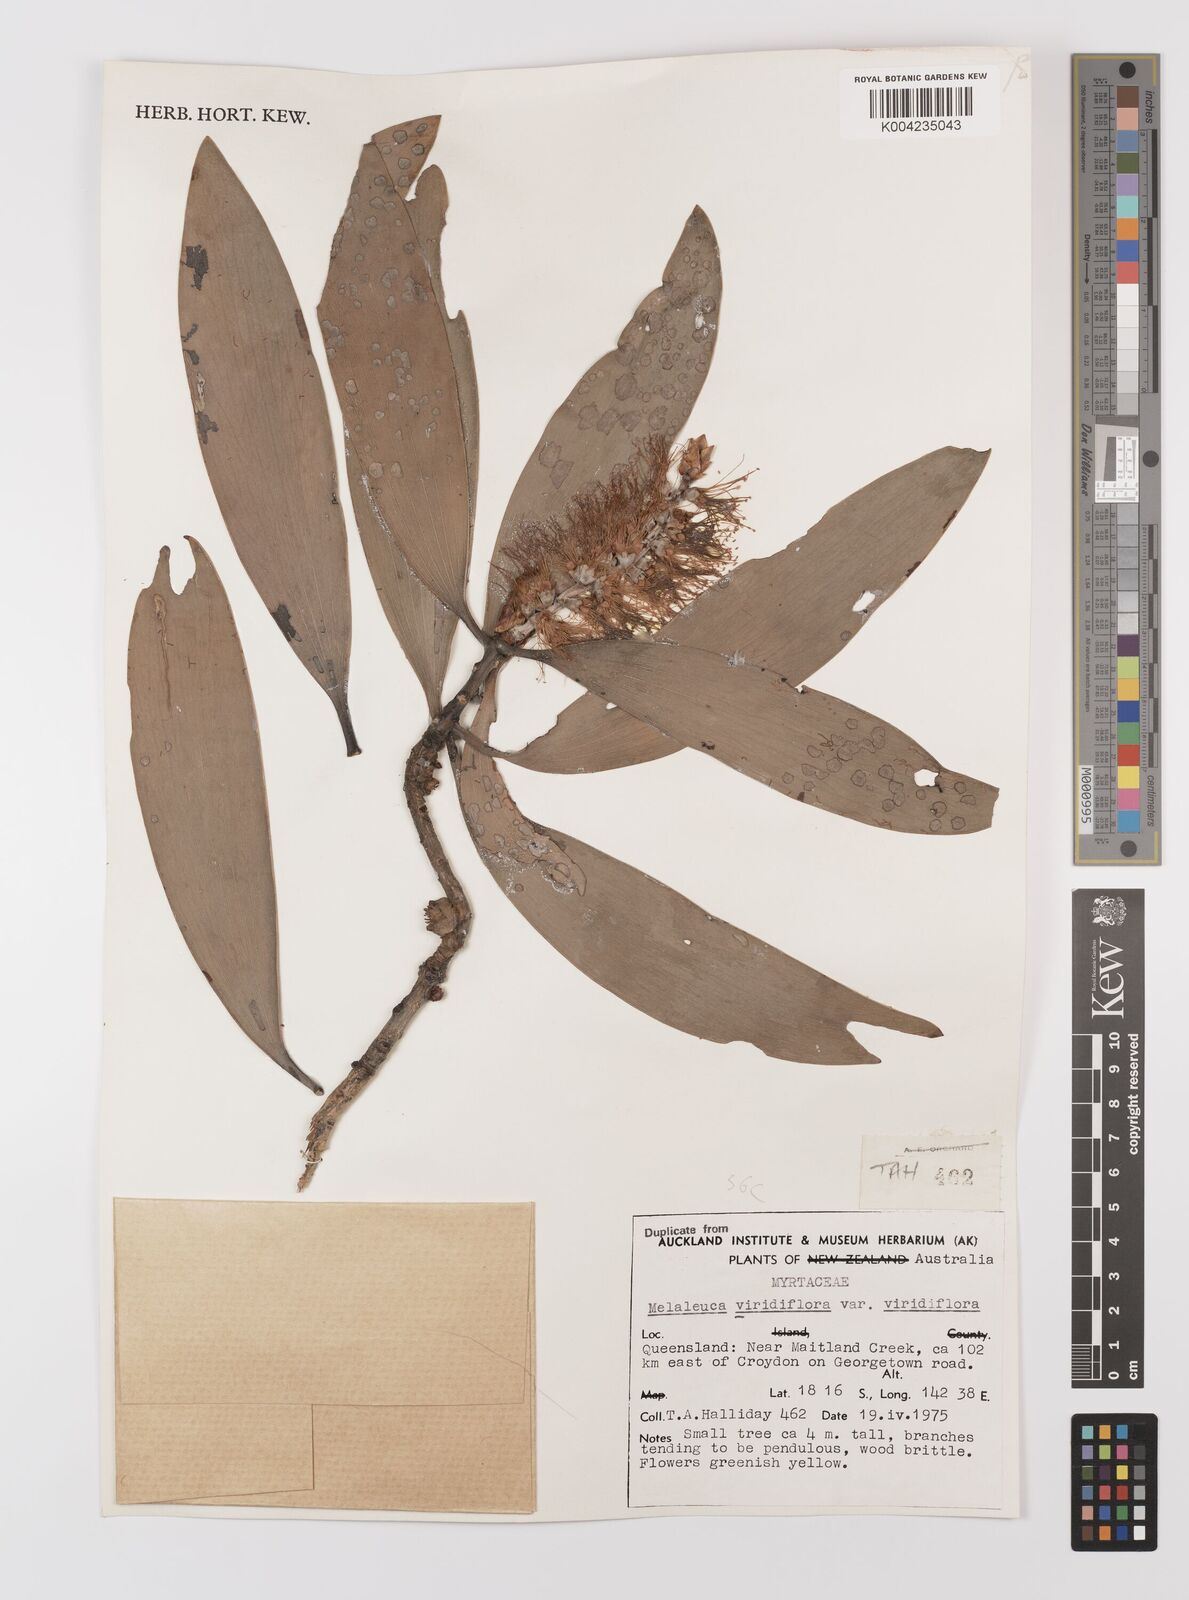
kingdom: Plantae
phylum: Tracheophyta
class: Magnoliopsida
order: Myrtales
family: Myrtaceae
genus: Melaleuca
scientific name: Melaleuca viridiflora
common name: Brown-leaved paperbark
